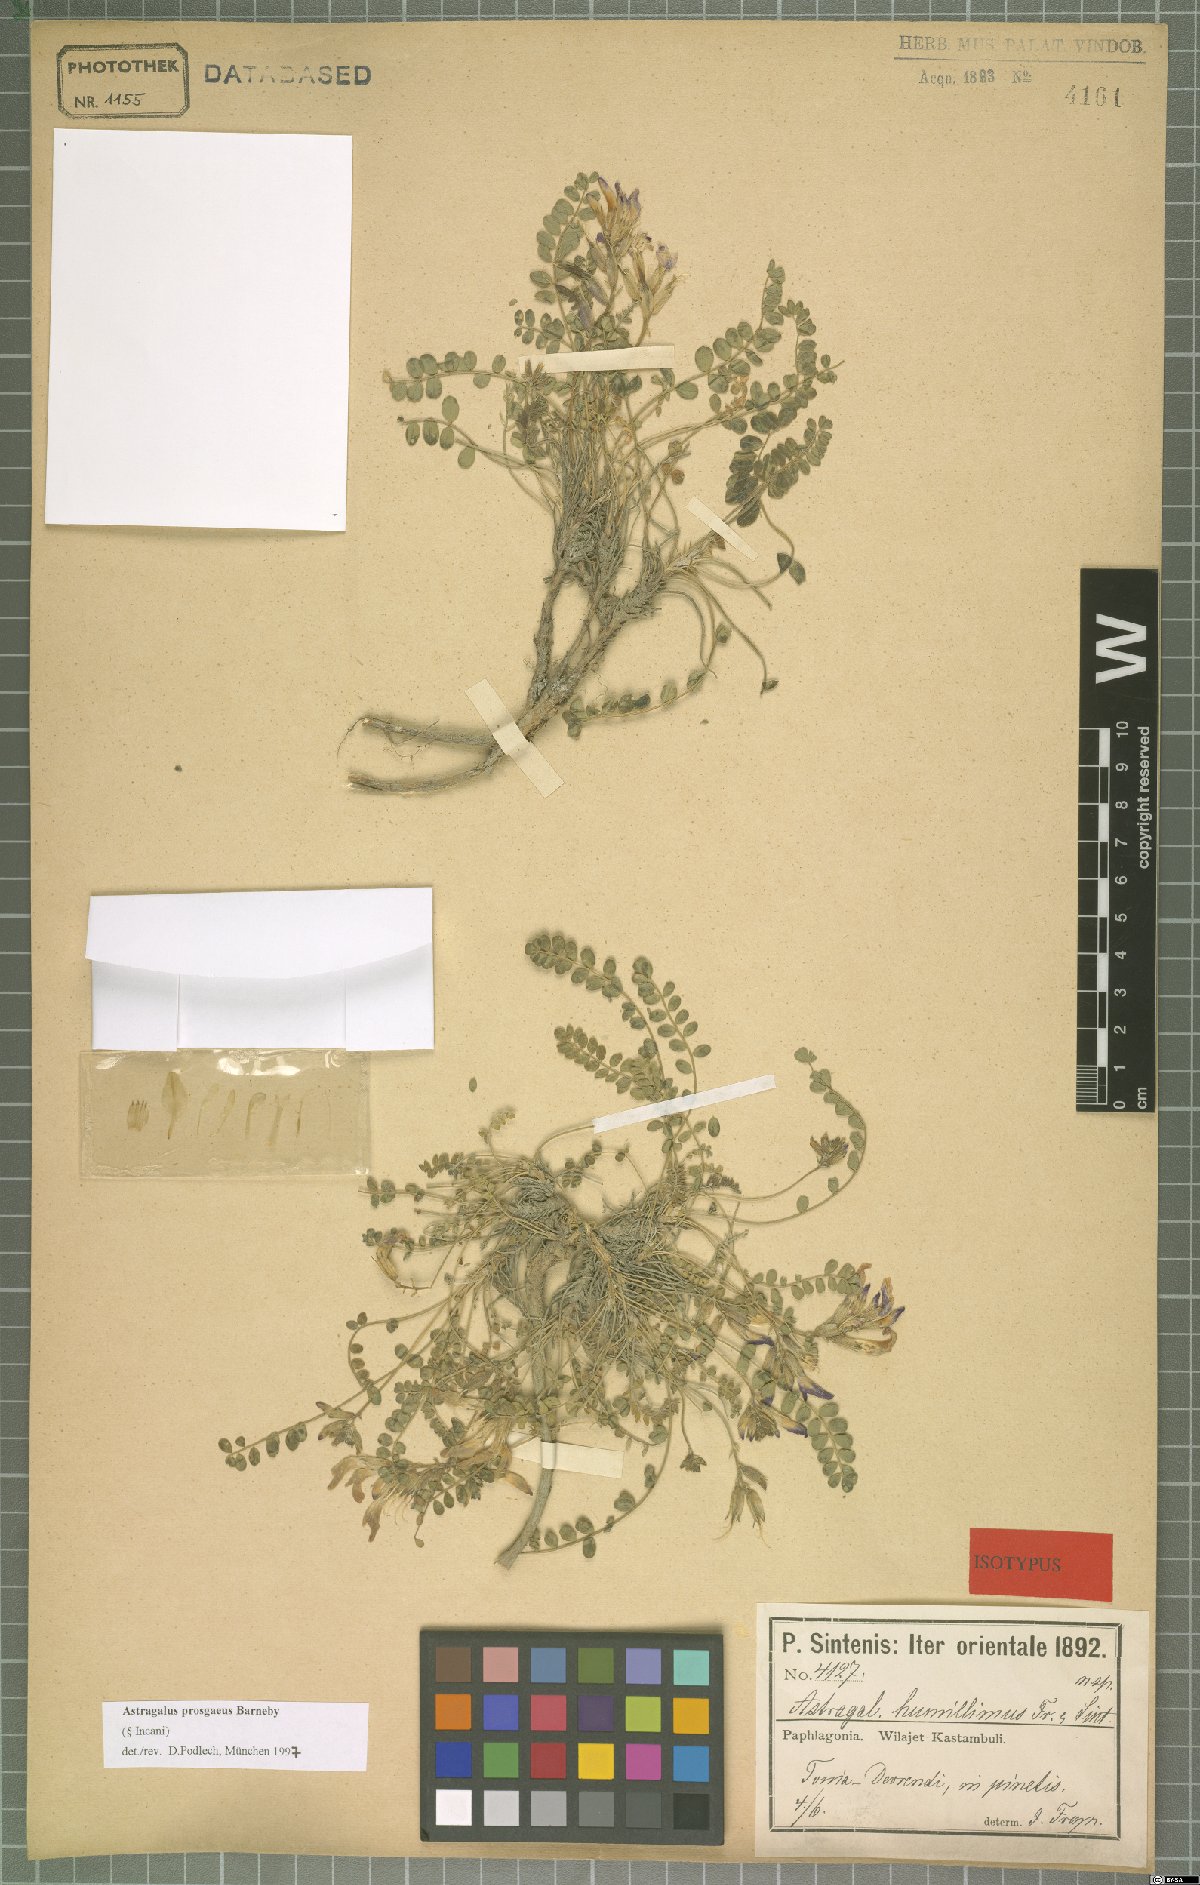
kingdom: Plantae
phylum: Tracheophyta
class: Magnoliopsida
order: Fabales
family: Fabaceae
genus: Astragalus
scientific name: Astragalus prosgaeus
